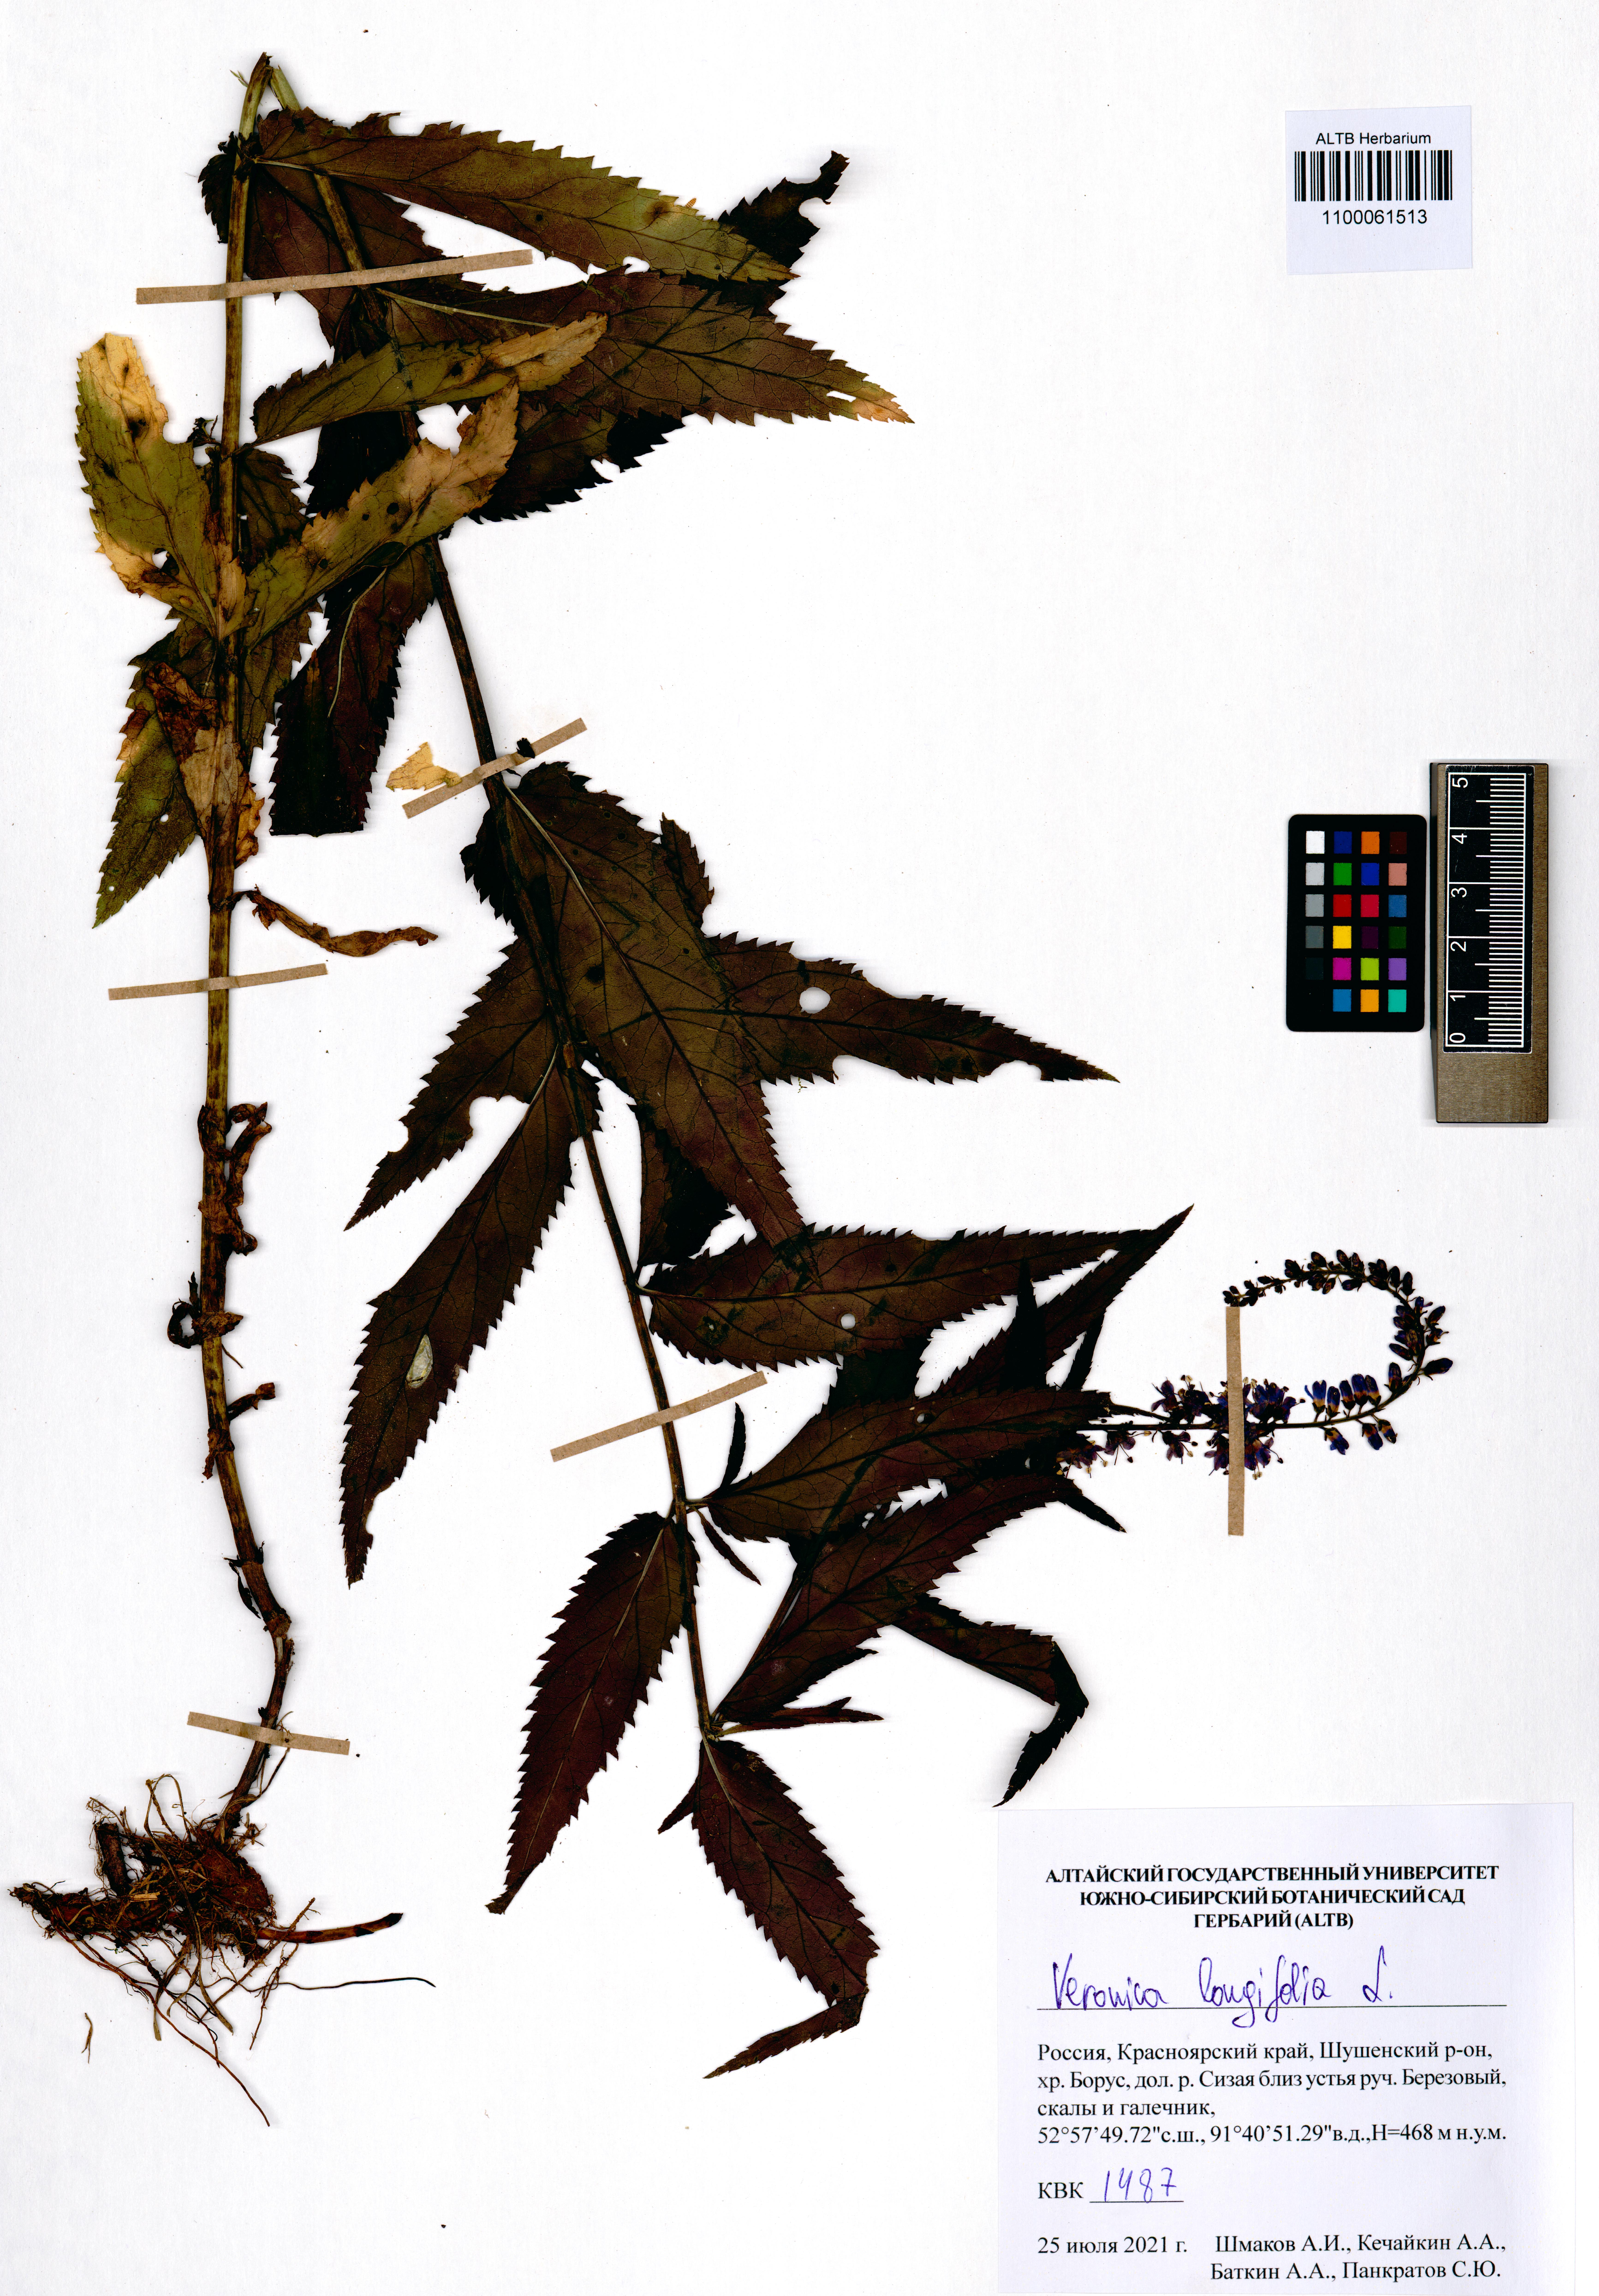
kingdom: Plantae
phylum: Tracheophyta
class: Magnoliopsida
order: Lamiales
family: Plantaginaceae
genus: Veronica
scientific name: Veronica longifolia
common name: Garden speedwell
